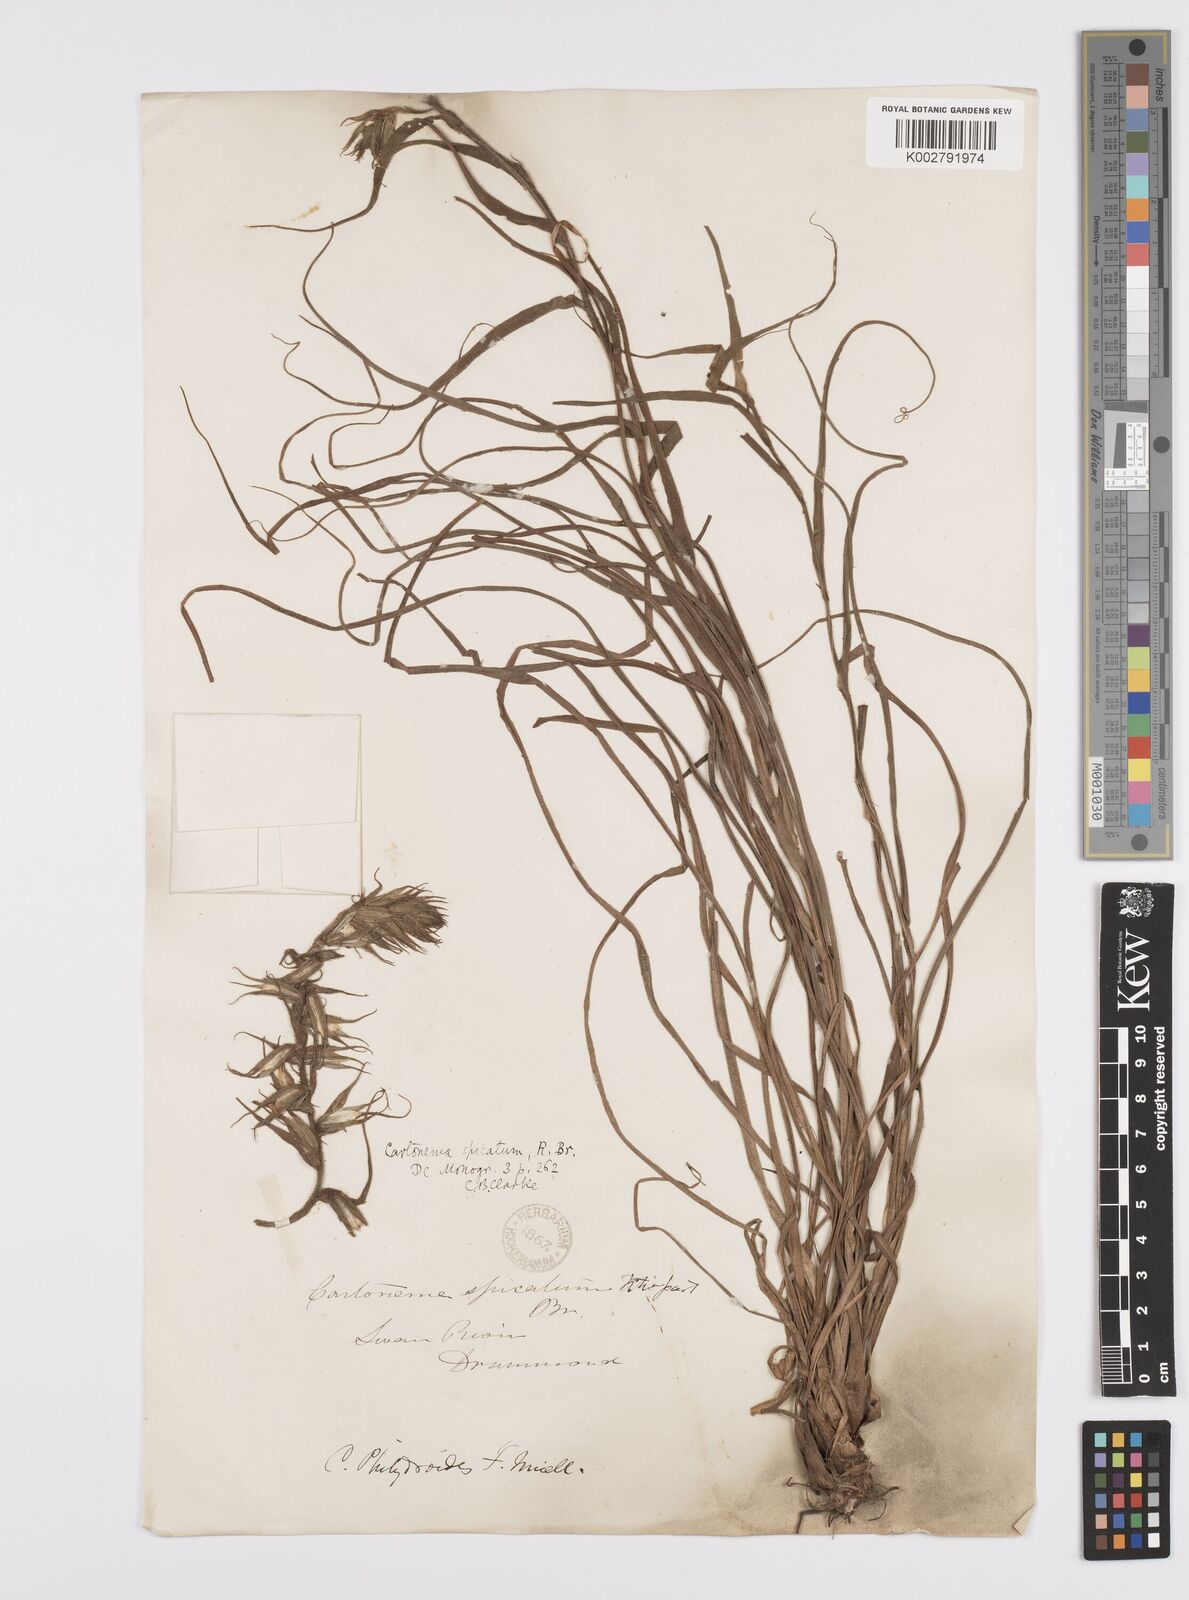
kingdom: Plantae
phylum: Tracheophyta
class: Liliopsida
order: Commelinales
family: Commelinaceae
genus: Cartonema
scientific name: Cartonema philydroides
